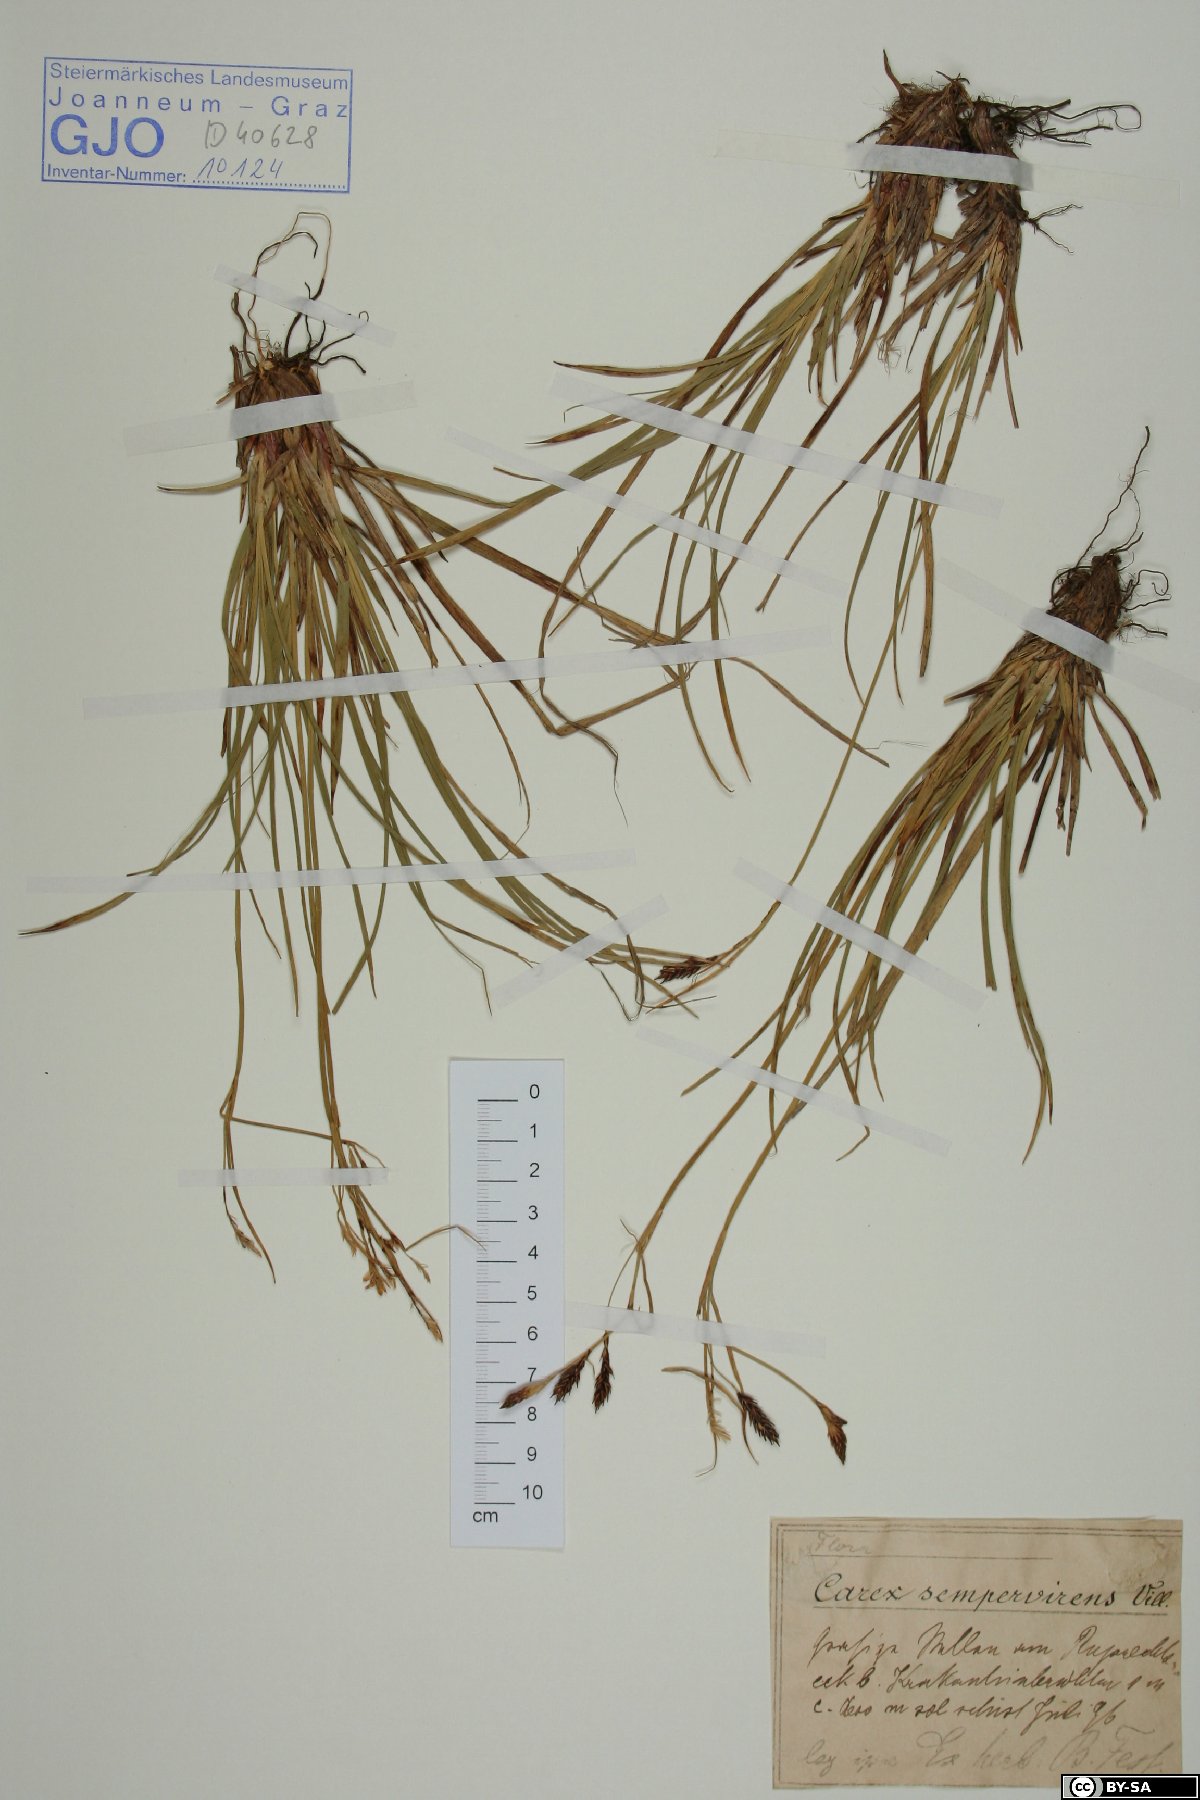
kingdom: Plantae
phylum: Tracheophyta
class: Liliopsida
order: Poales
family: Cyperaceae
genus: Carex
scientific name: Carex sempervirens
